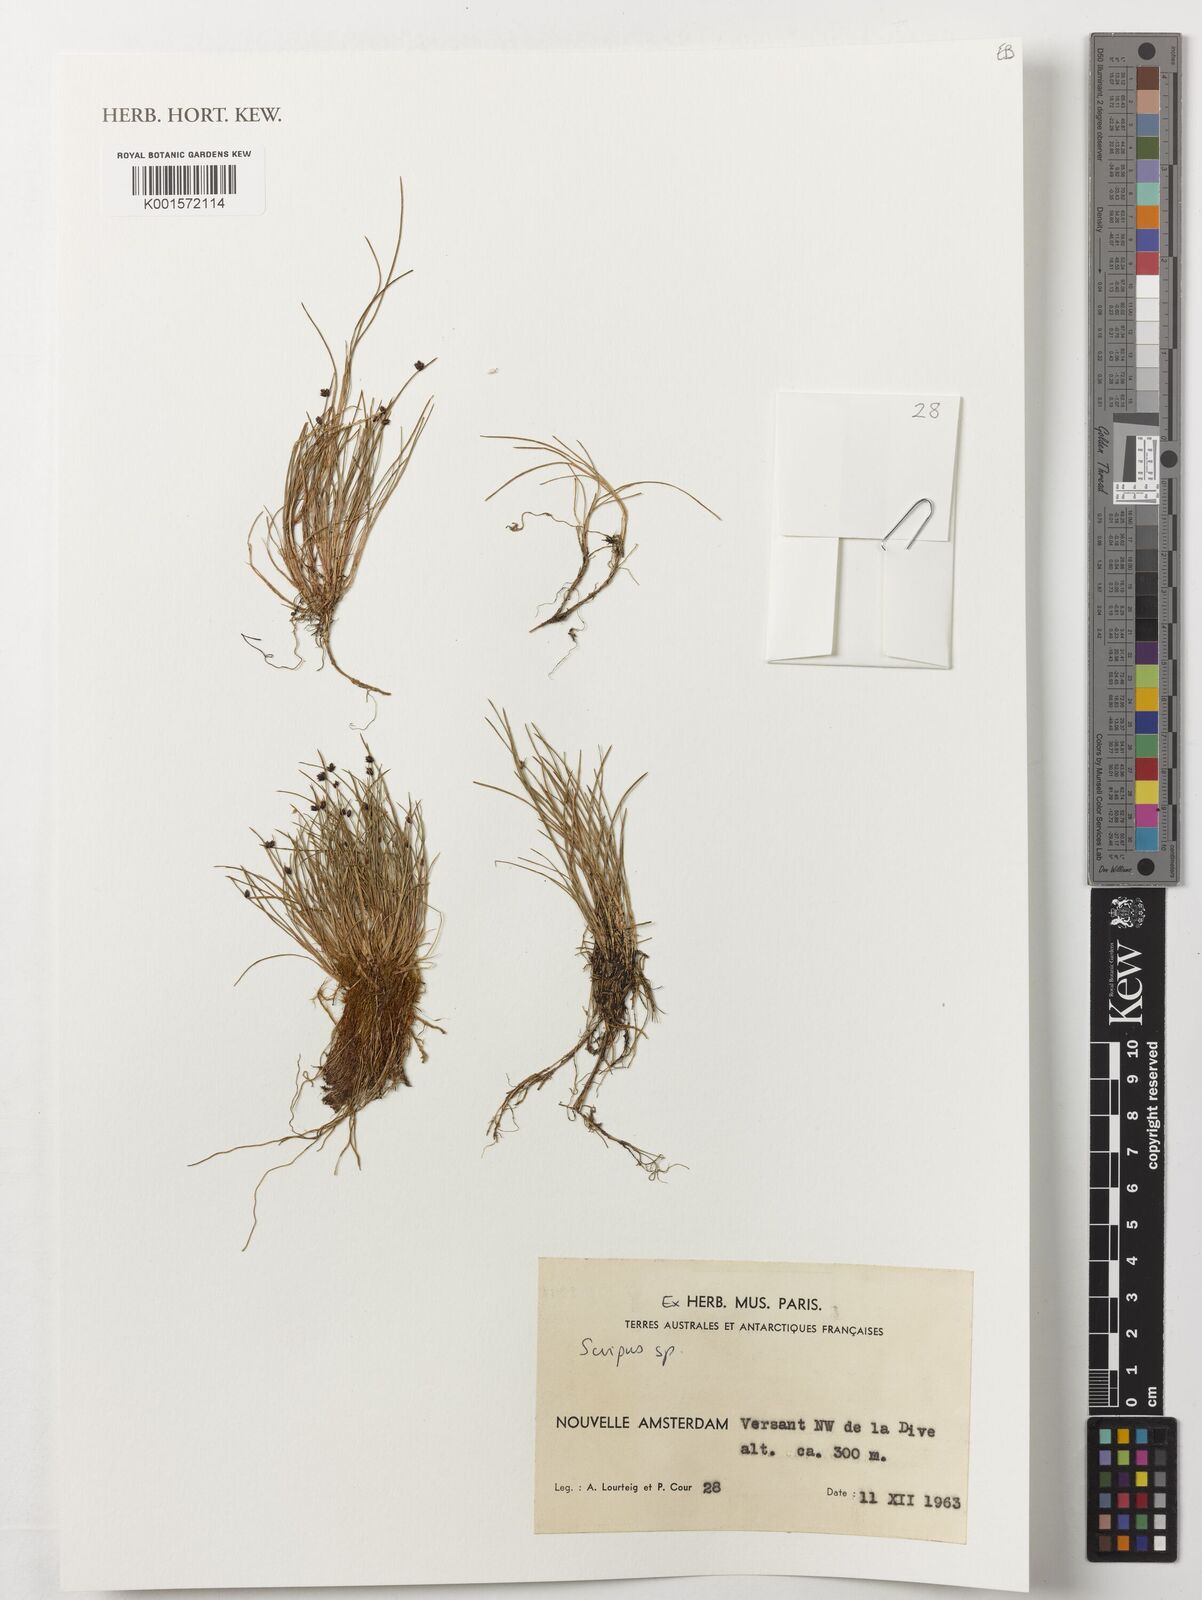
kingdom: Plantae
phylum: Tracheophyta
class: Liliopsida
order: Poales
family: Cyperaceae
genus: Scirpus
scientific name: Scirpus
